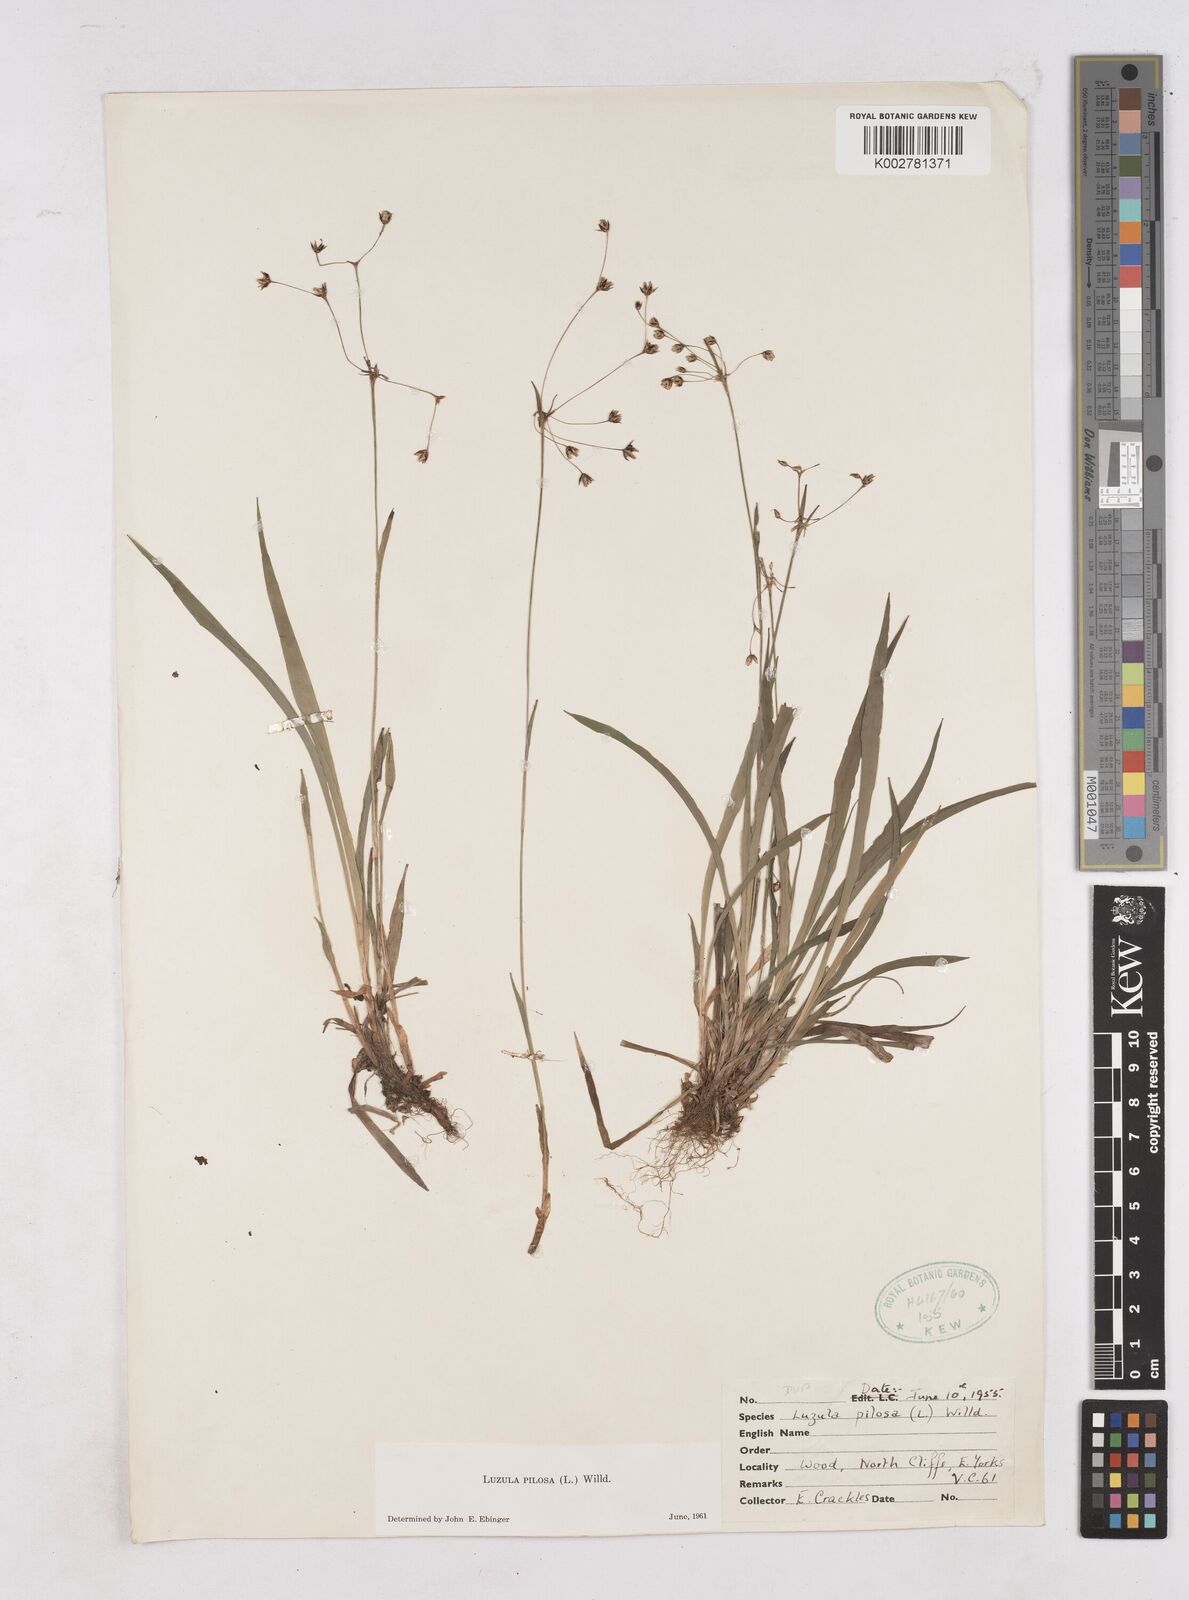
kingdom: Plantae
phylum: Tracheophyta
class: Liliopsida
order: Poales
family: Juncaceae
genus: Luzula
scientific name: Luzula pilosa
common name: Hairy wood-rush
